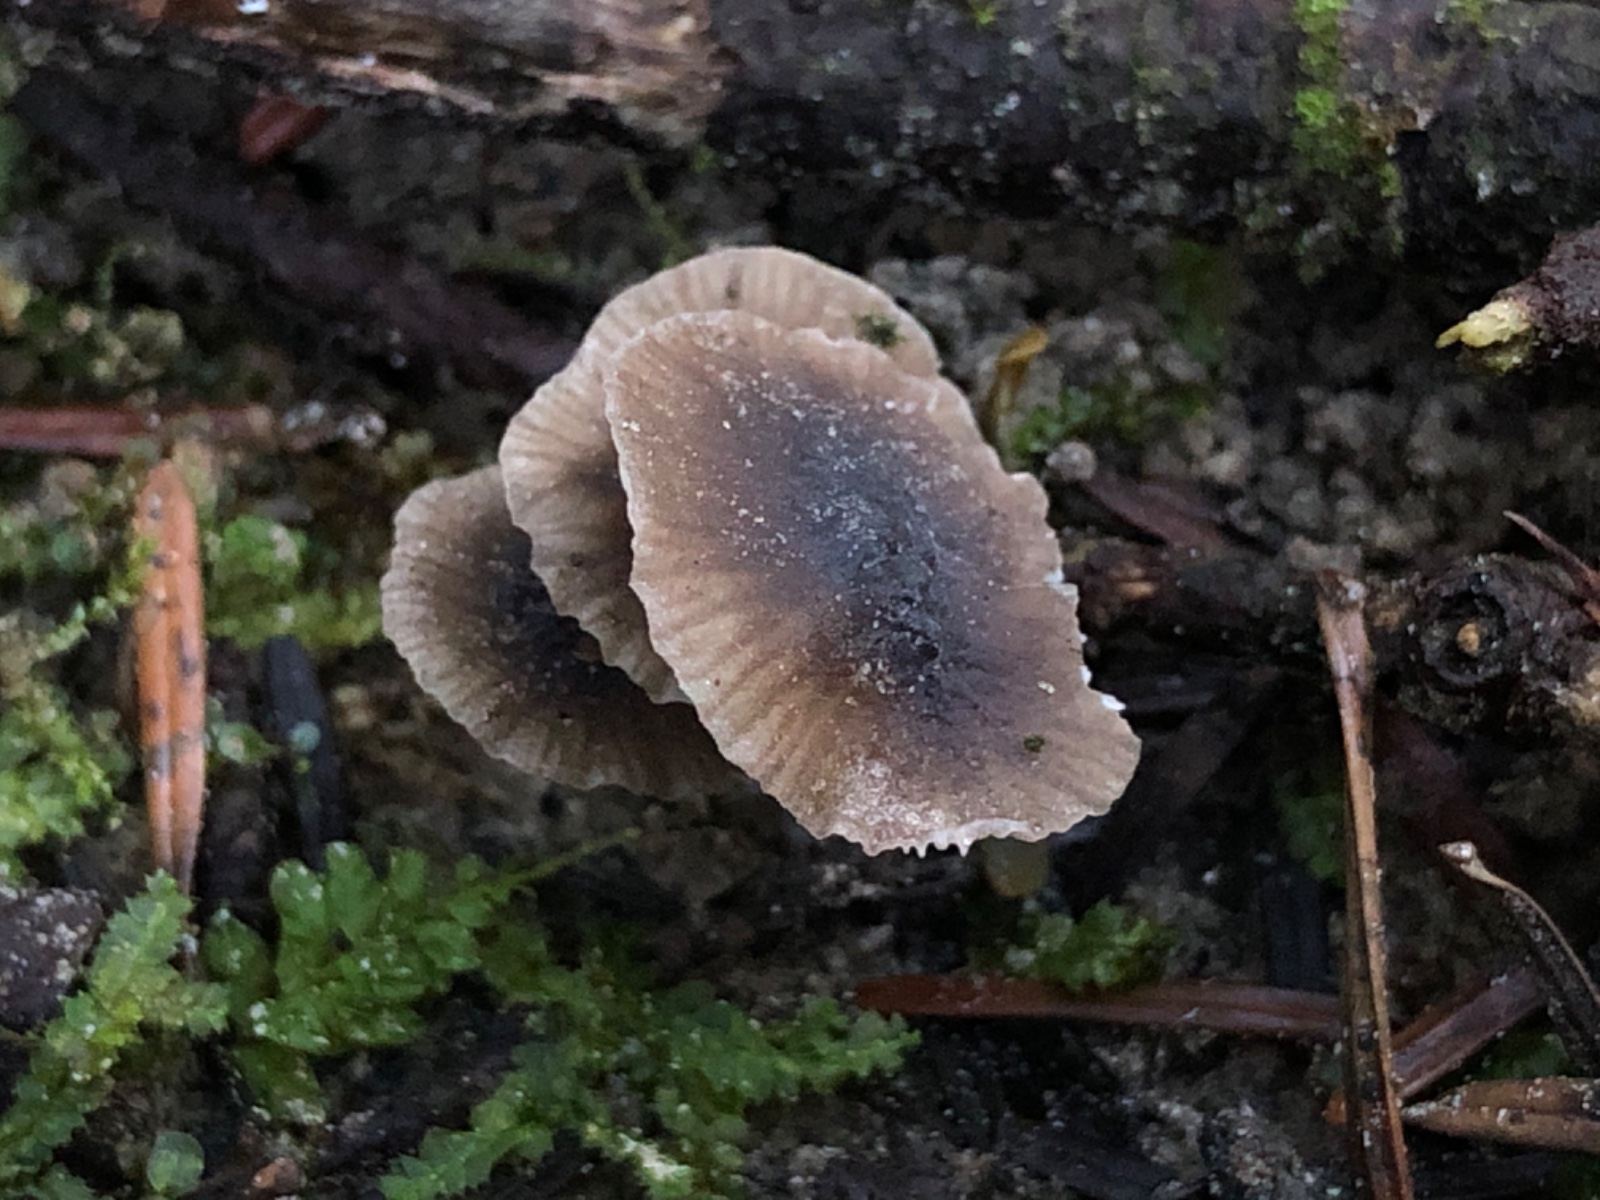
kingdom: Fungi
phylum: Basidiomycota
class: Agaricomycetes
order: Agaricales
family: Tricholomataceae
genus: Mycenella
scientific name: Mycenella salicina
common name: glatsporet dughat
